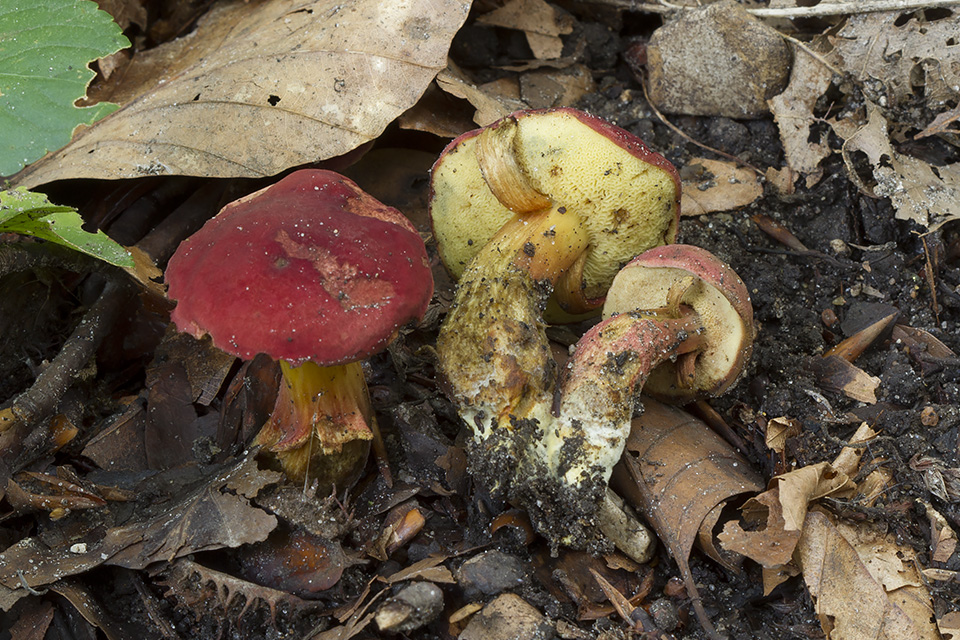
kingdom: Fungi
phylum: Basidiomycota
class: Agaricomycetes
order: Boletales
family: Boletaceae
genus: Hortiboletus
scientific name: Hortiboletus rubellus
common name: blodrød rørhat
